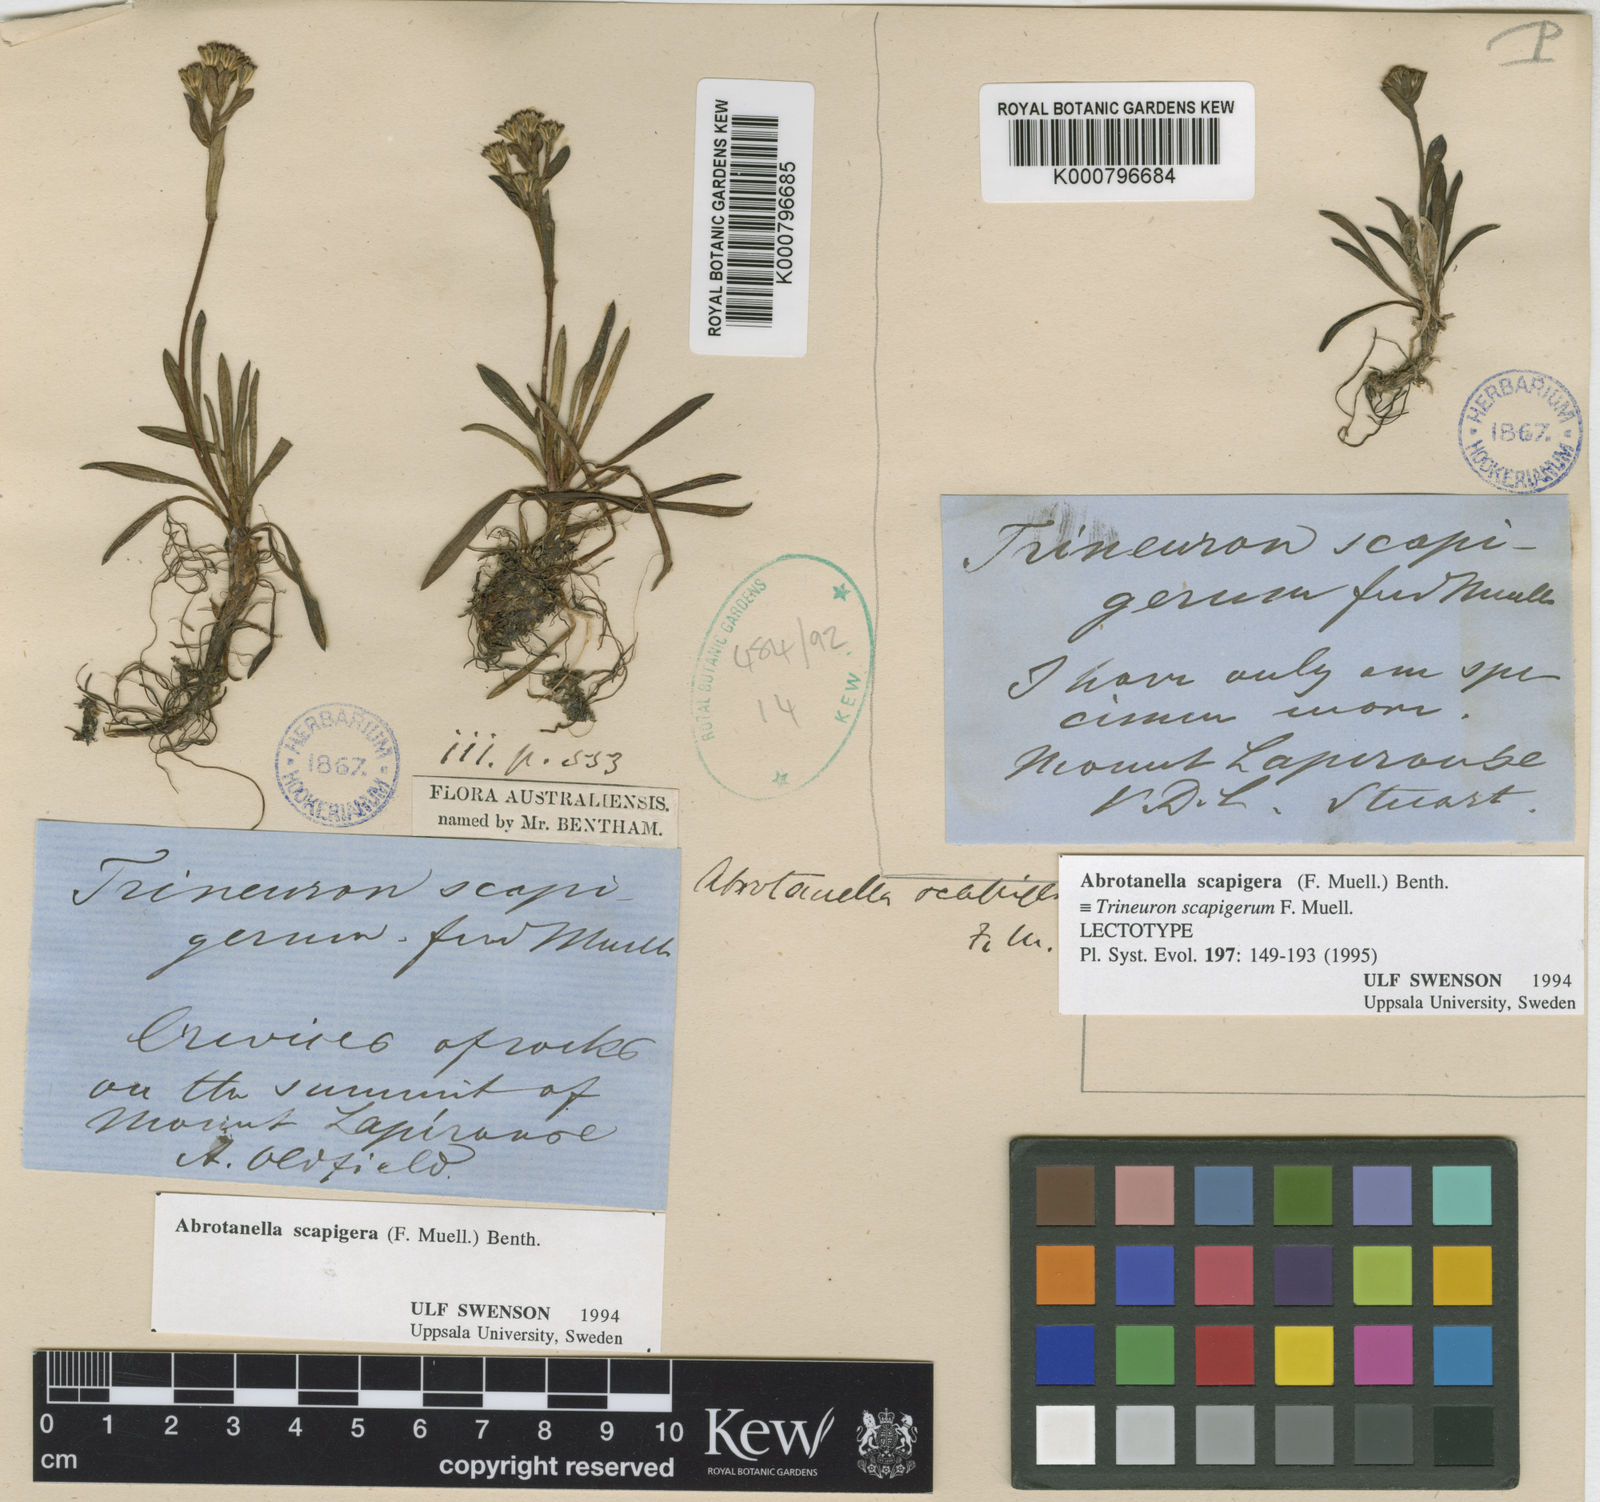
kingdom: Plantae
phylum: Tracheophyta
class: Magnoliopsida
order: Asterales
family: Asteraceae
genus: Abrotanella
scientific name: Abrotanella scapigera
